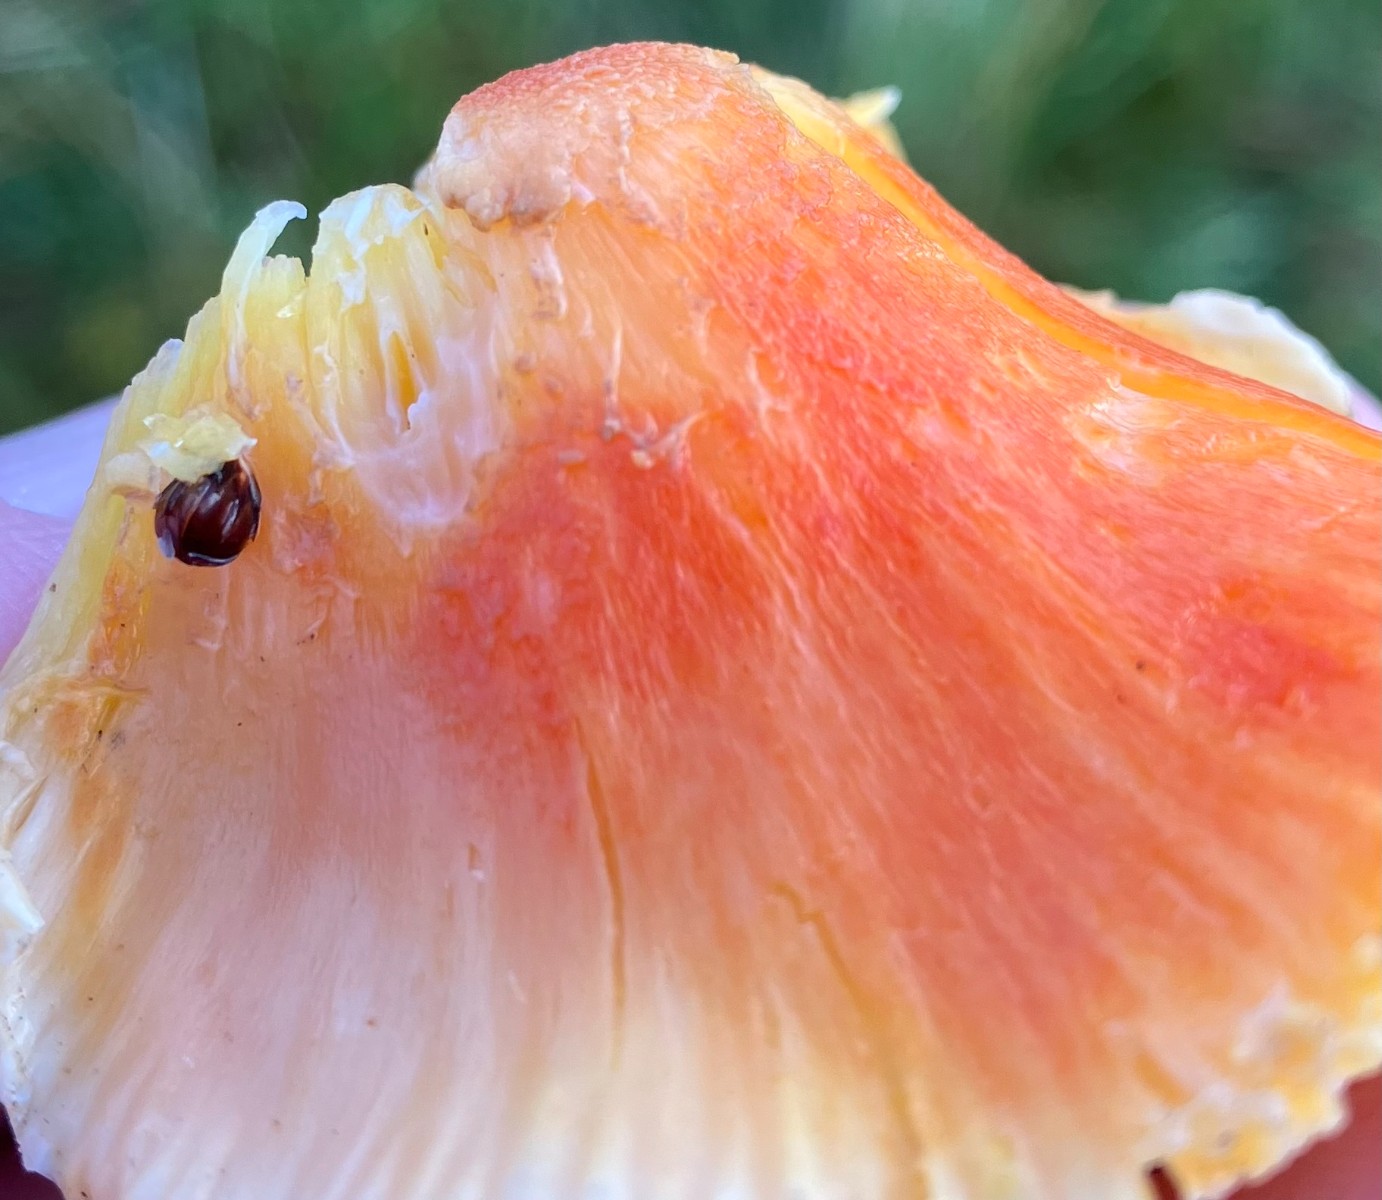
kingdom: Fungi
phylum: Basidiomycota
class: Agaricomycetes
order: Agaricales
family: Hygrophoraceae
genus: Hygrocybe
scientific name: Hygrocybe miniata
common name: mønje-vokshat
